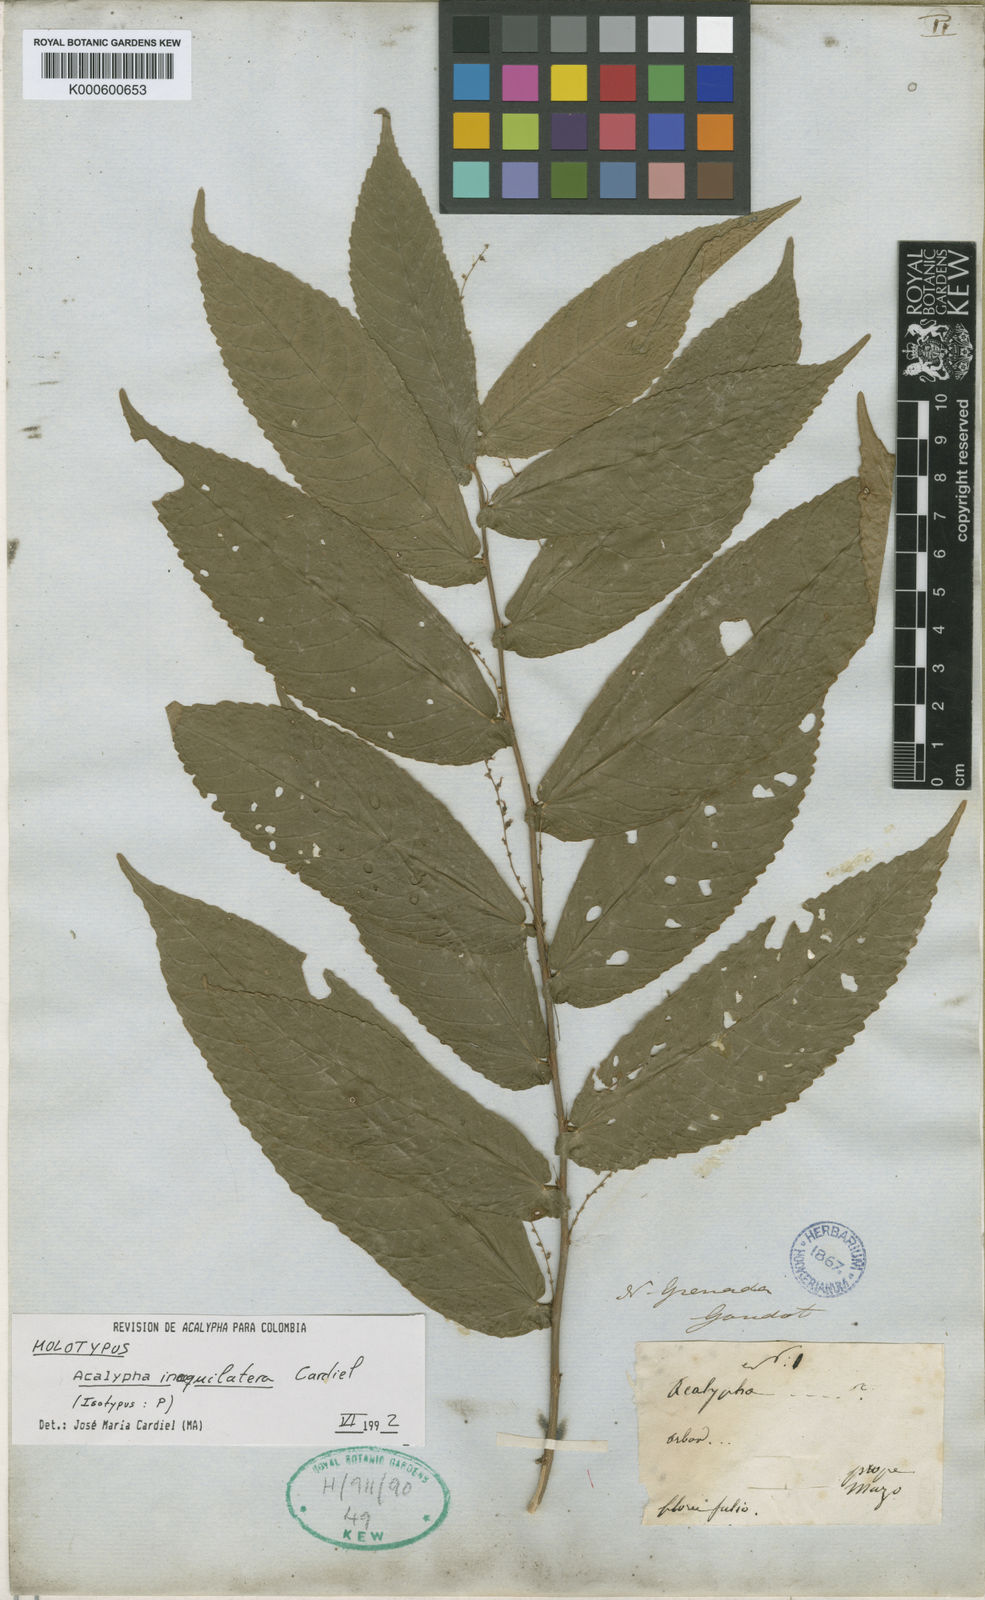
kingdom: Plantae
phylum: Tracheophyta
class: Magnoliopsida
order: Malpighiales
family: Euphorbiaceae
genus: Acalypha
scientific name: Acalypha inaequilatera
